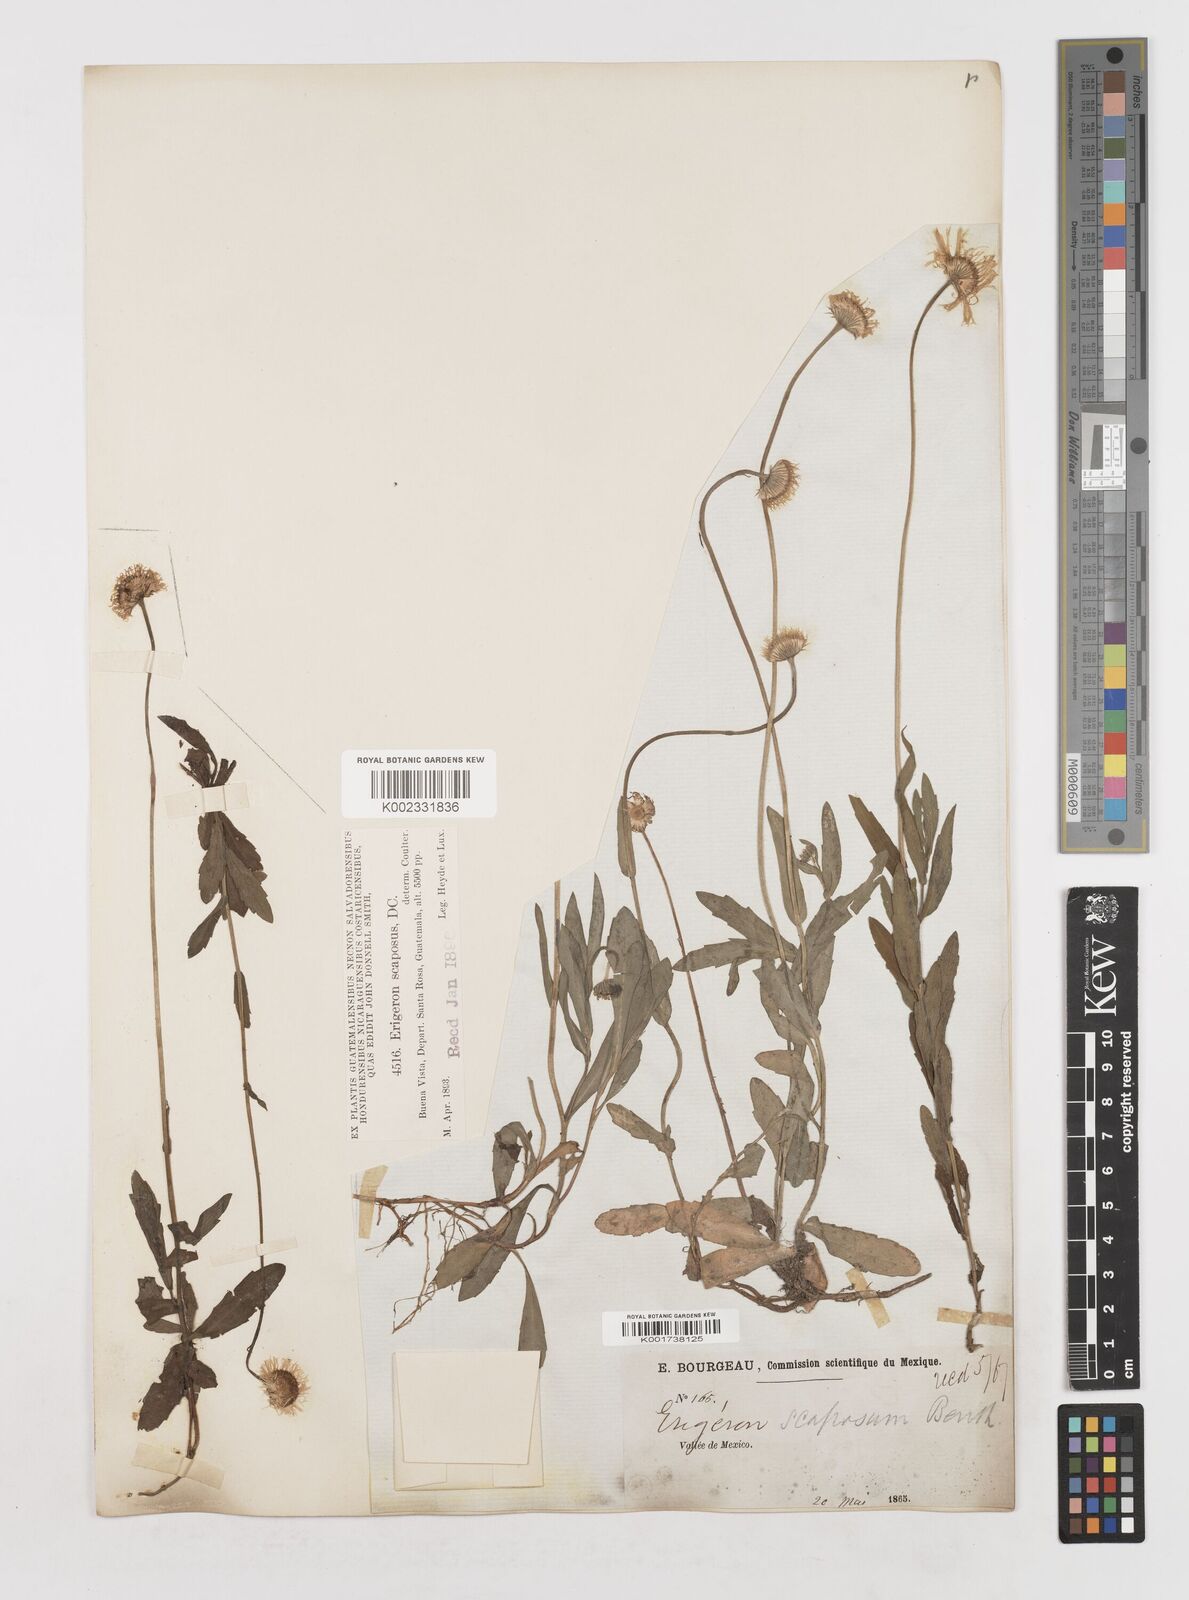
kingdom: Plantae
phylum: Tracheophyta
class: Magnoliopsida
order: Asterales
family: Asteraceae
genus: Erigeron
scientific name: Erigeron longipes
